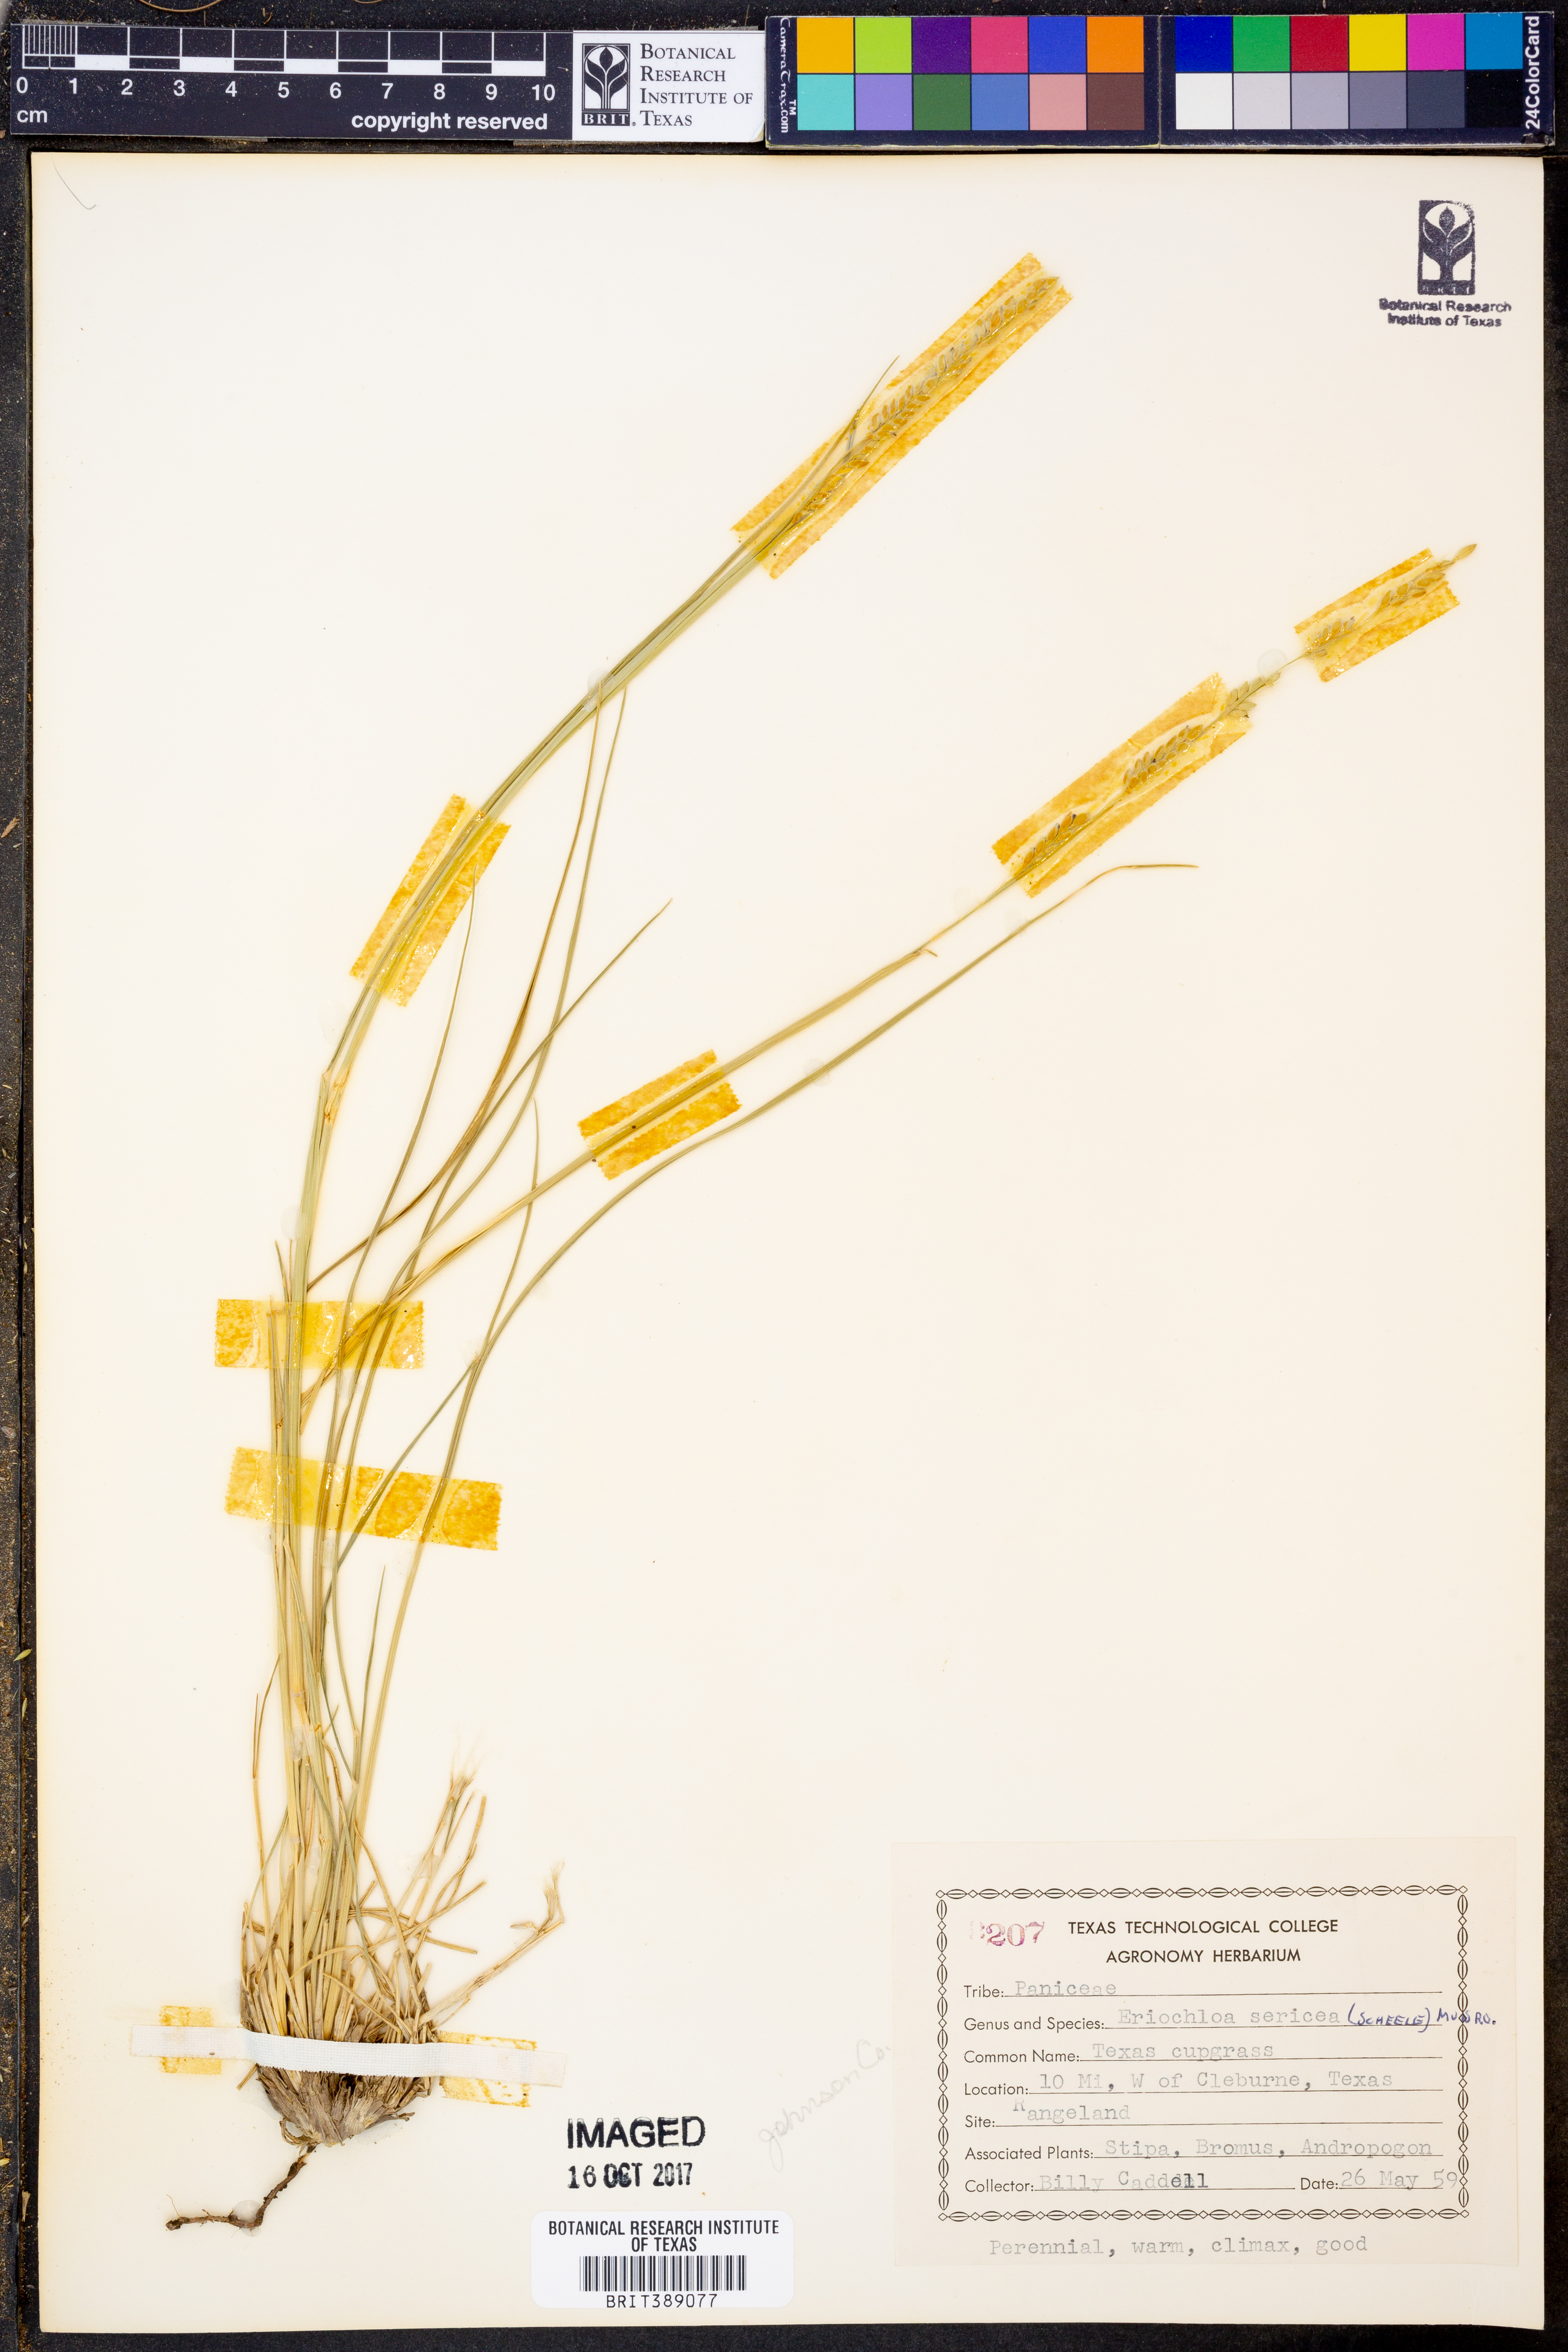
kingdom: Plantae
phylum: Tracheophyta
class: Liliopsida
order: Poales
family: Poaceae
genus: Eriochloa
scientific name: Eriochloa sericea
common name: Texas cup grass
